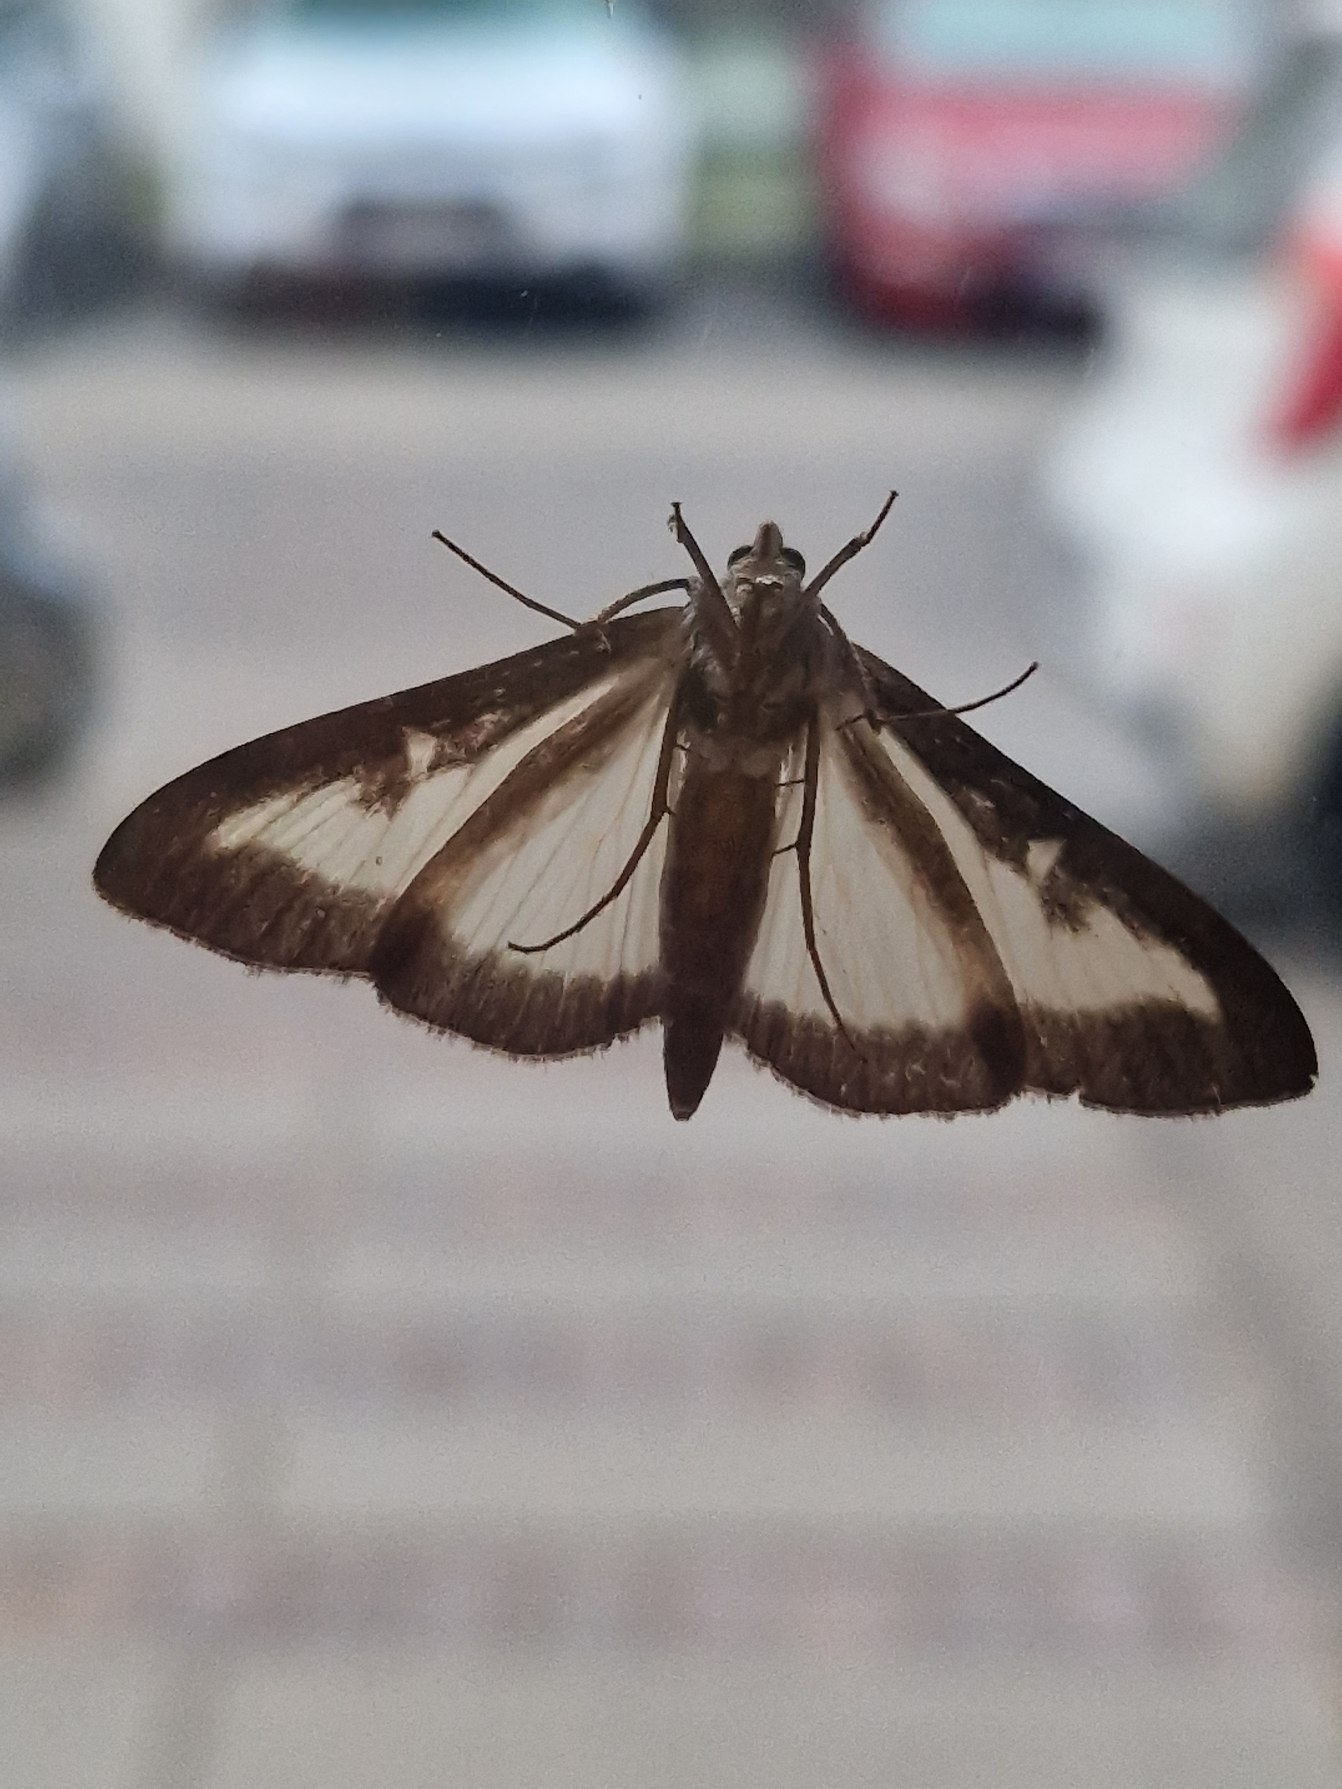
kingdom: Animalia
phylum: Arthropoda
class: Insecta
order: Lepidoptera
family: Crambidae
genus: Cydalima
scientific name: Cydalima perspectalis
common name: Buksbomhalvmøl
